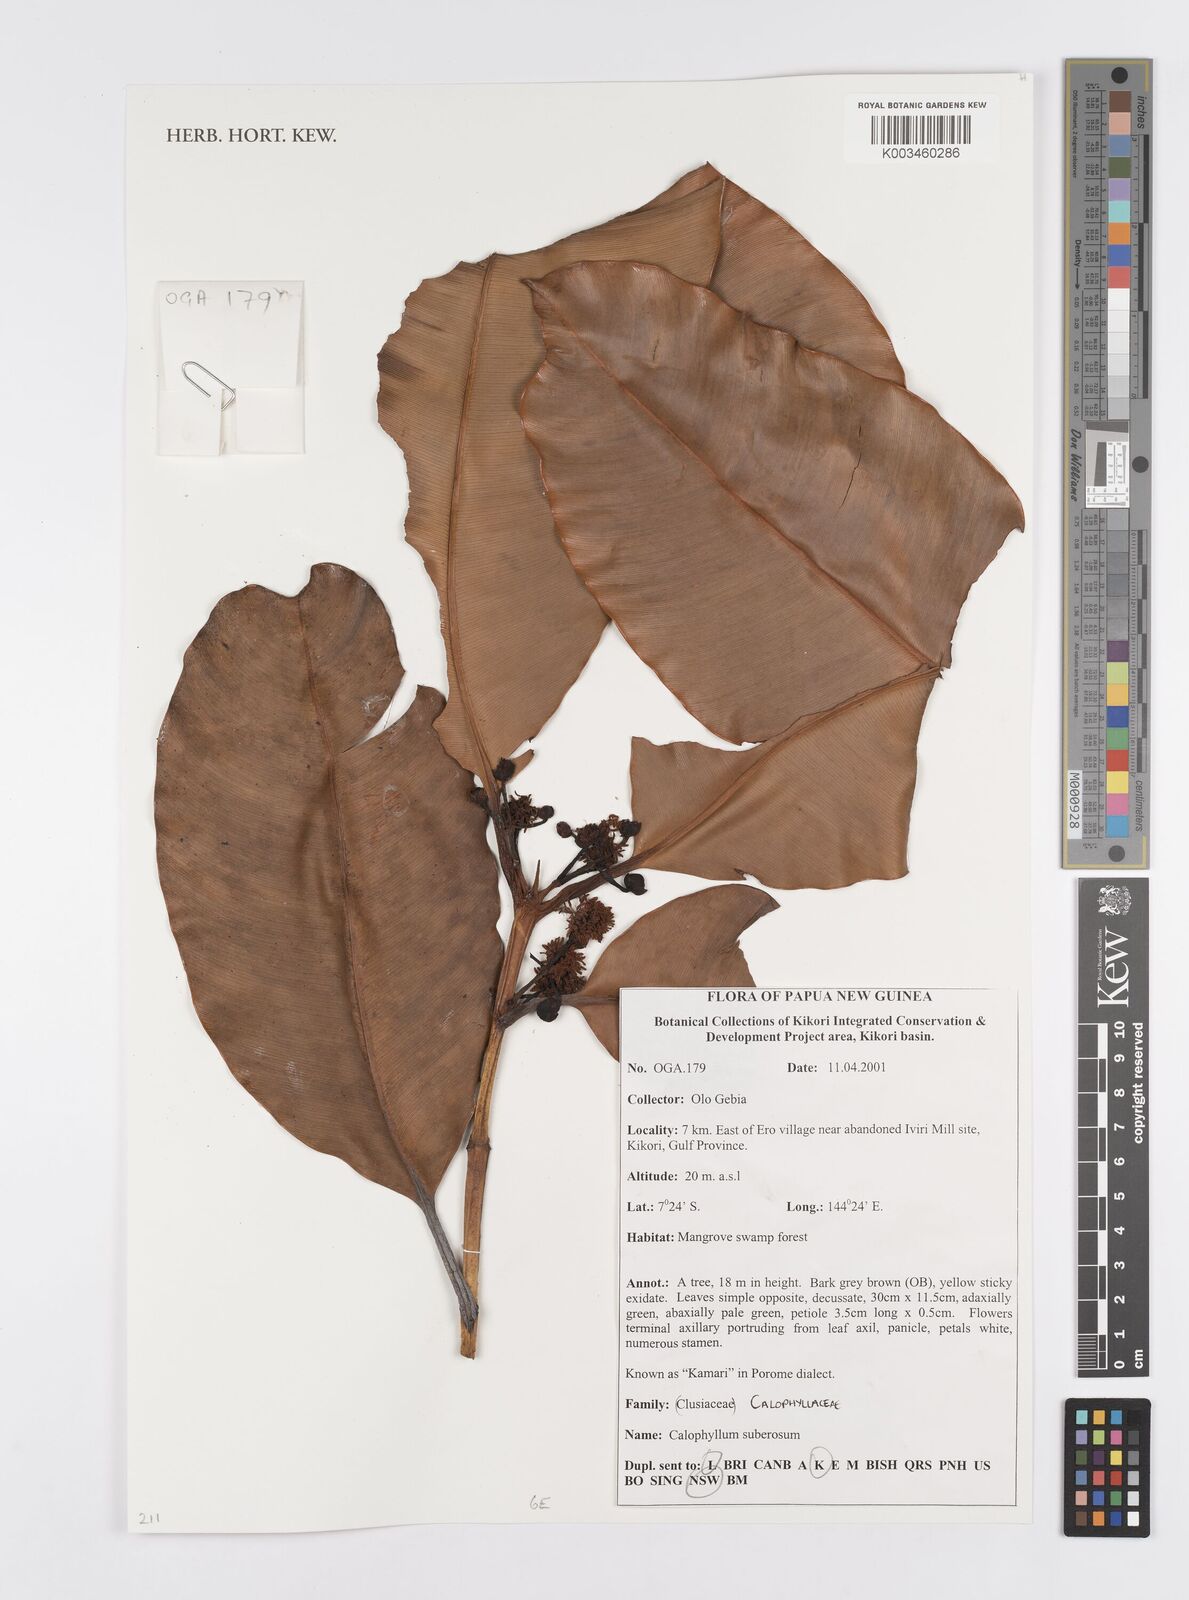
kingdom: Plantae
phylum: Tracheophyta
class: Magnoliopsida
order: Malpighiales
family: Calophyllaceae
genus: Calophyllum
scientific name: Calophyllum suberosum
